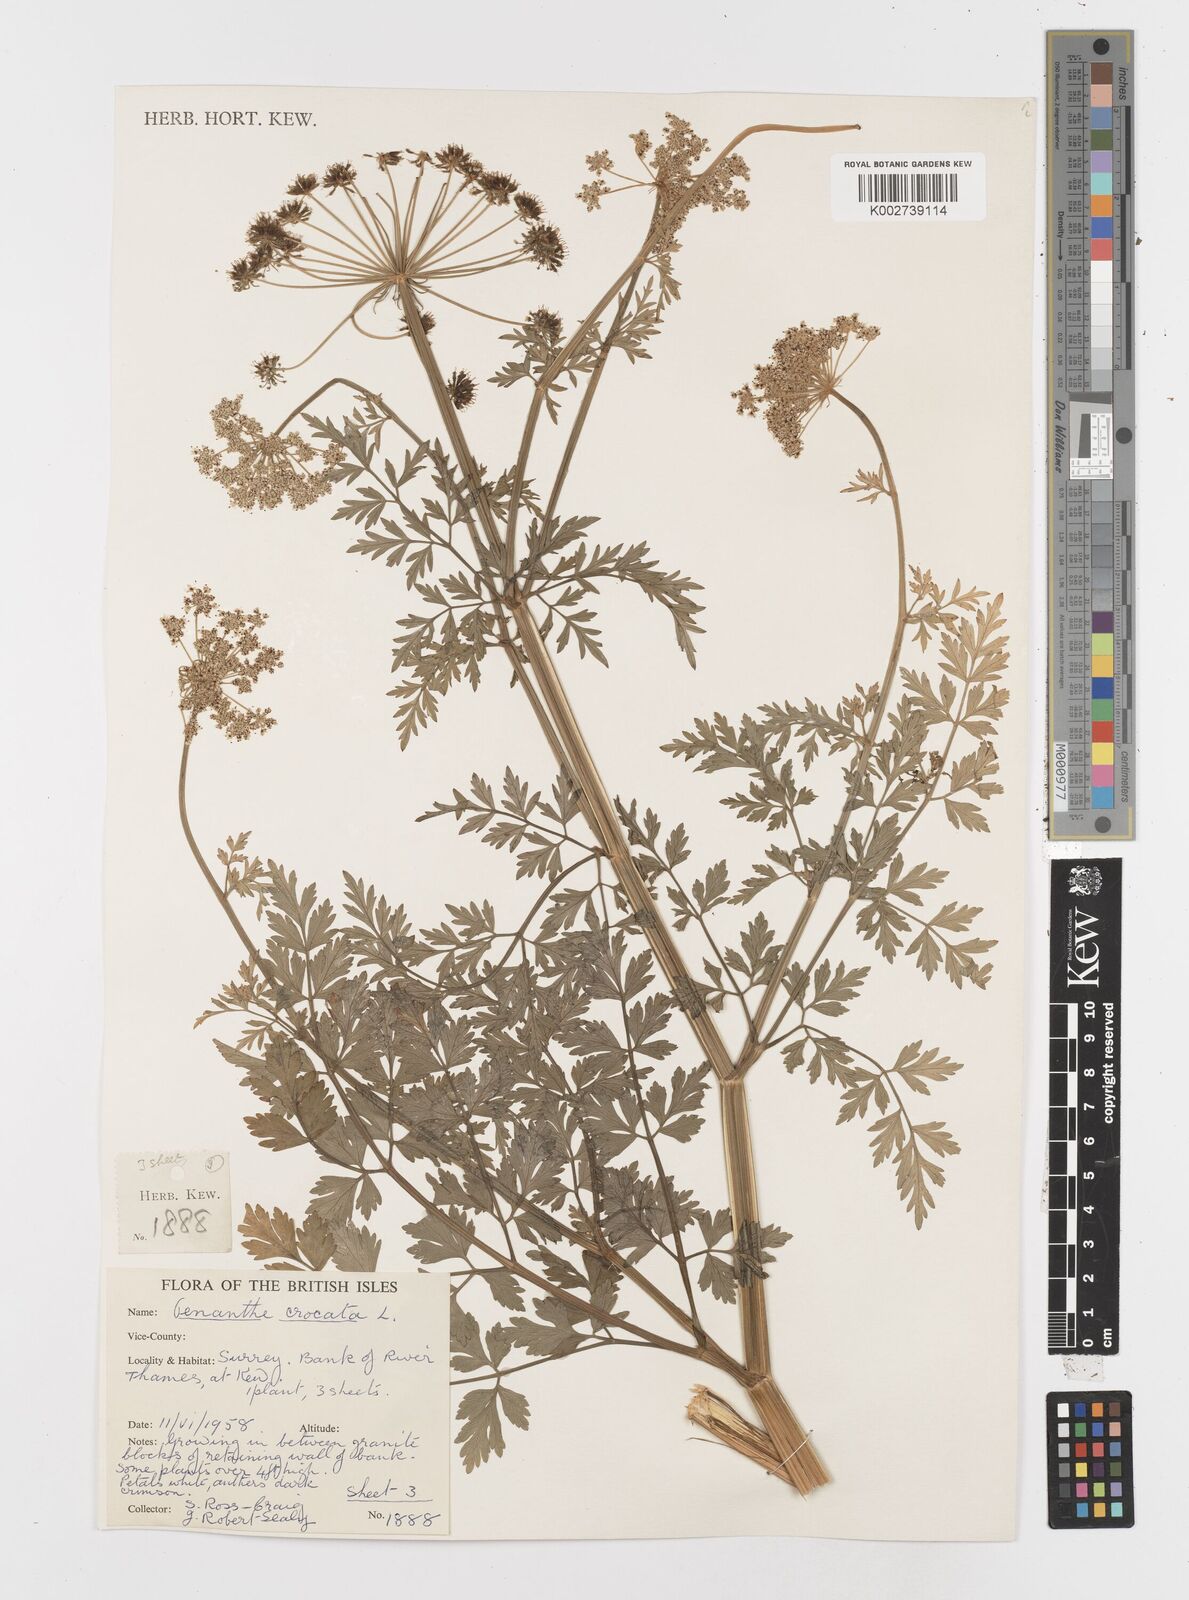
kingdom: Plantae
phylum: Tracheophyta
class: Magnoliopsida
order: Apiales
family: Apiaceae
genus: Oenanthe
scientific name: Oenanthe crocata
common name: Hemlock water-dropwort
